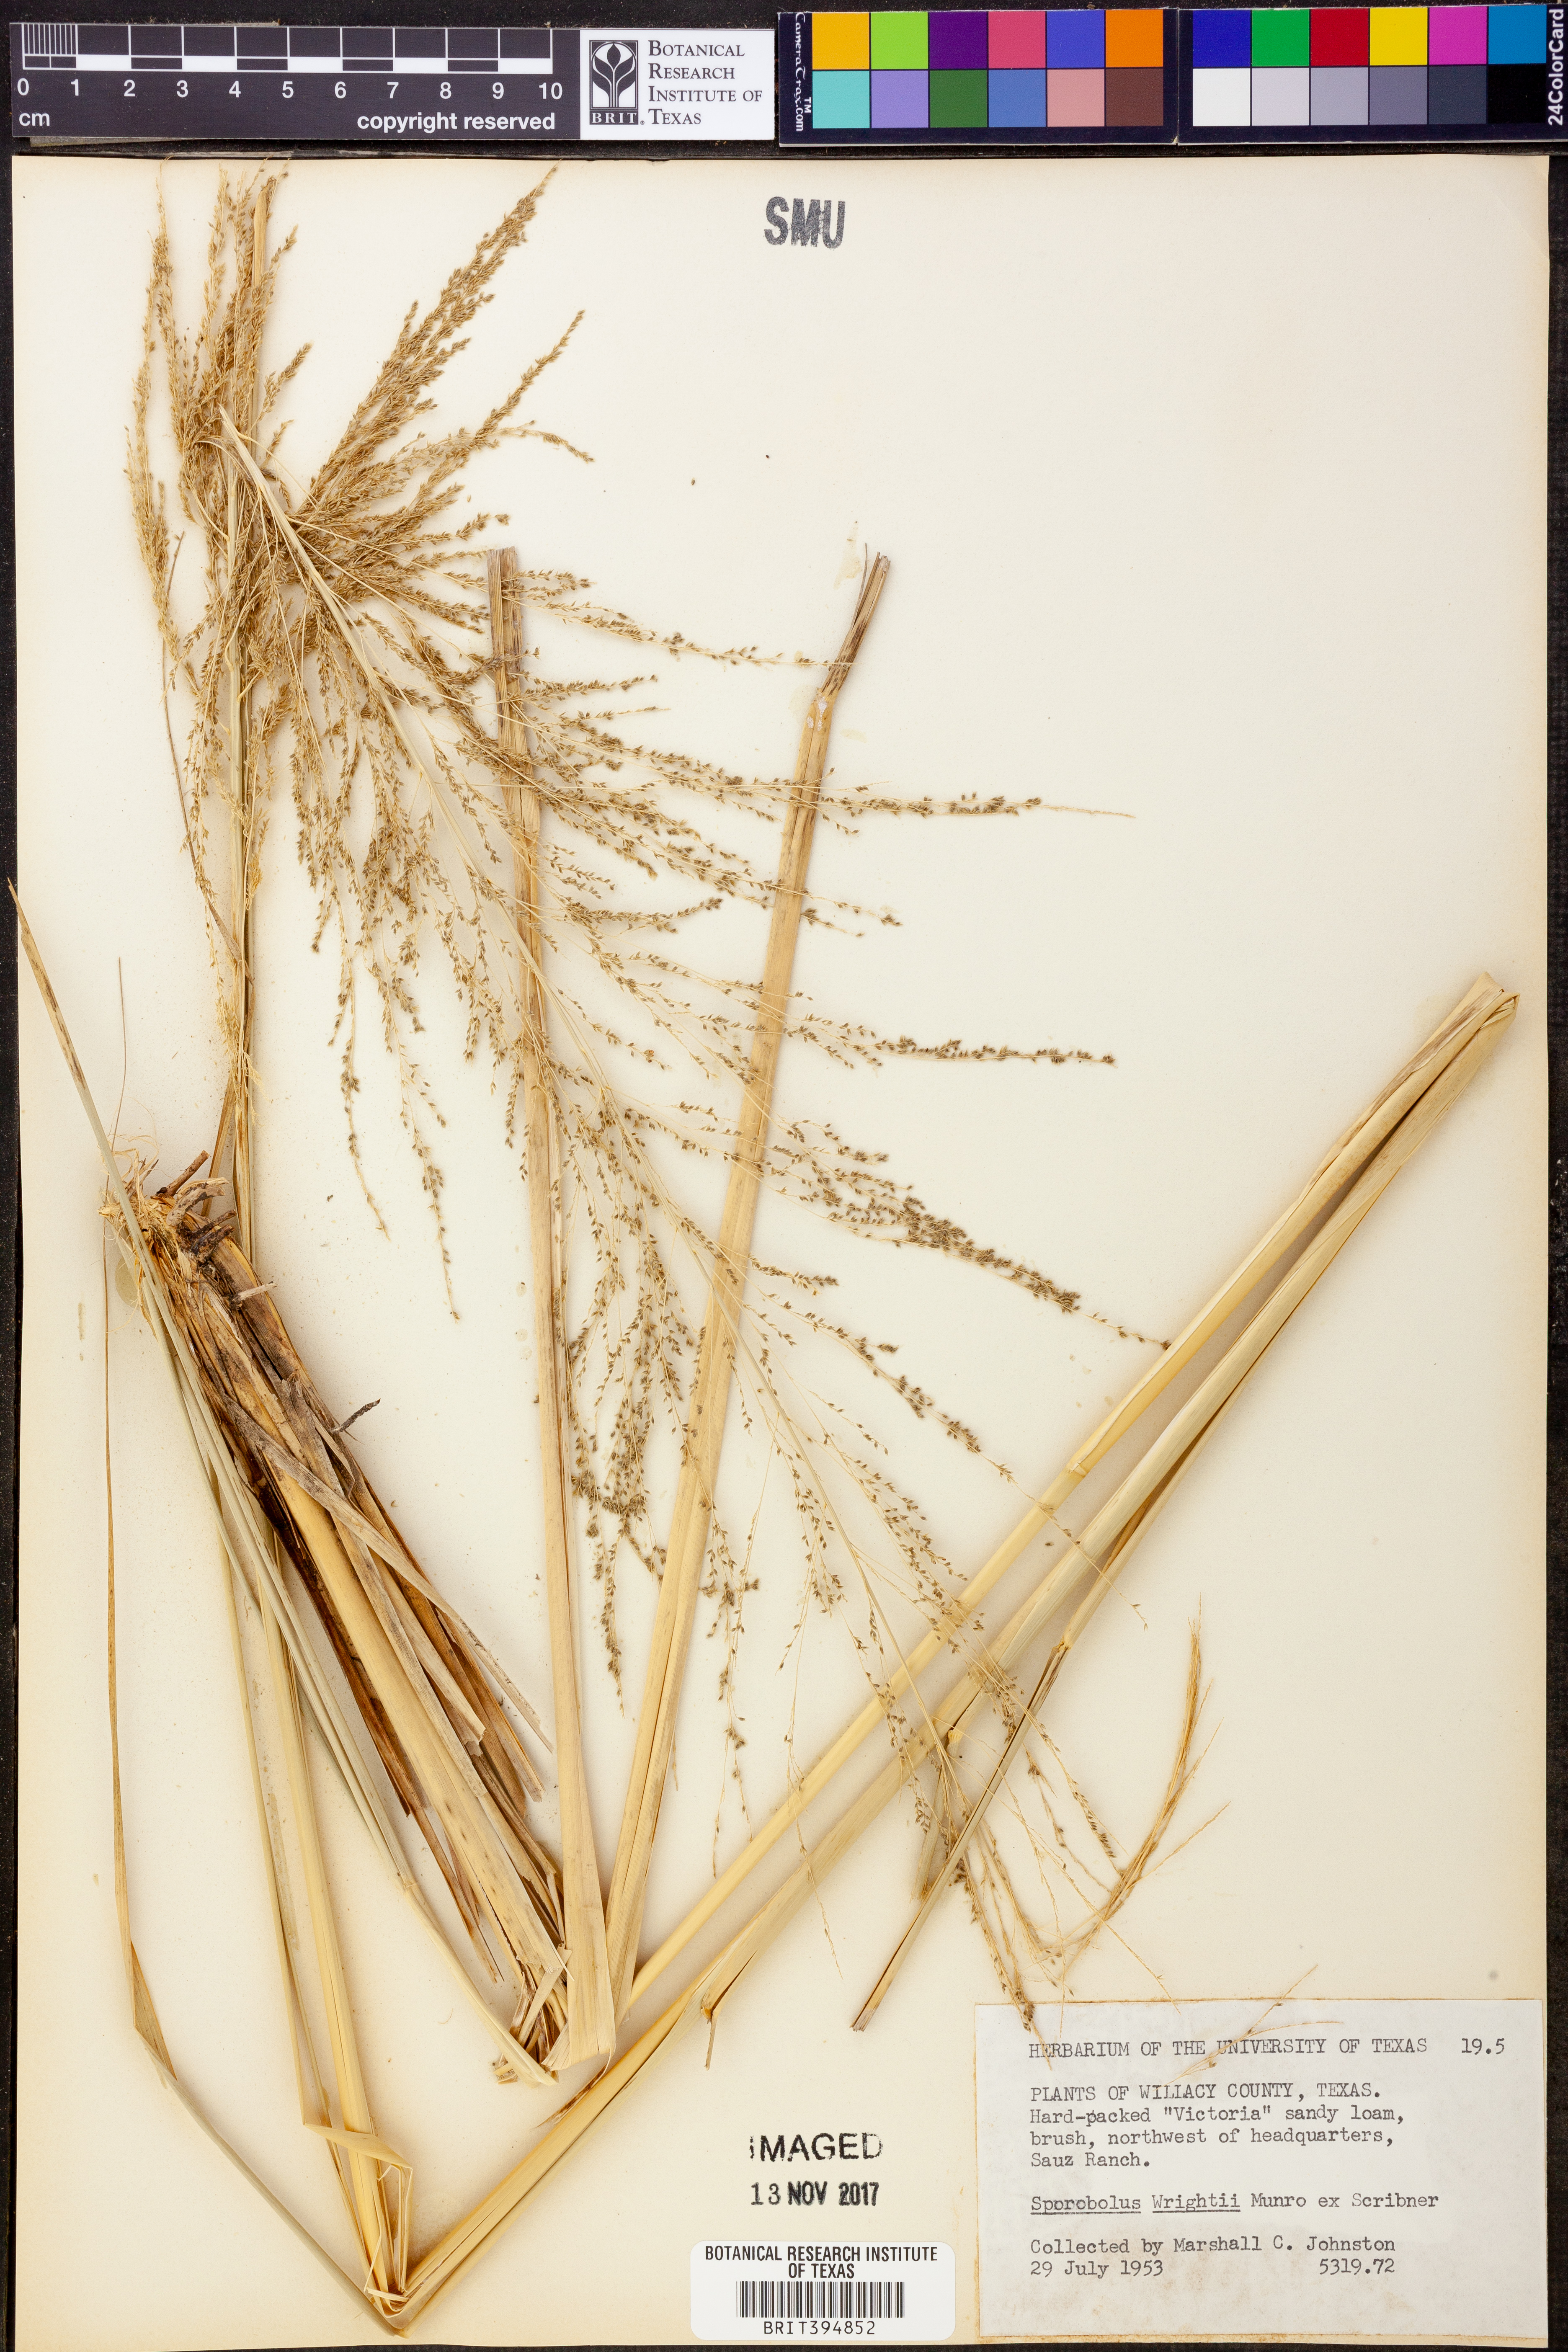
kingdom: Plantae
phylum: Tracheophyta
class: Liliopsida
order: Poales
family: Poaceae
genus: Sporobolus
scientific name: Sporobolus wrightii
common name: Big alkali sacaton
